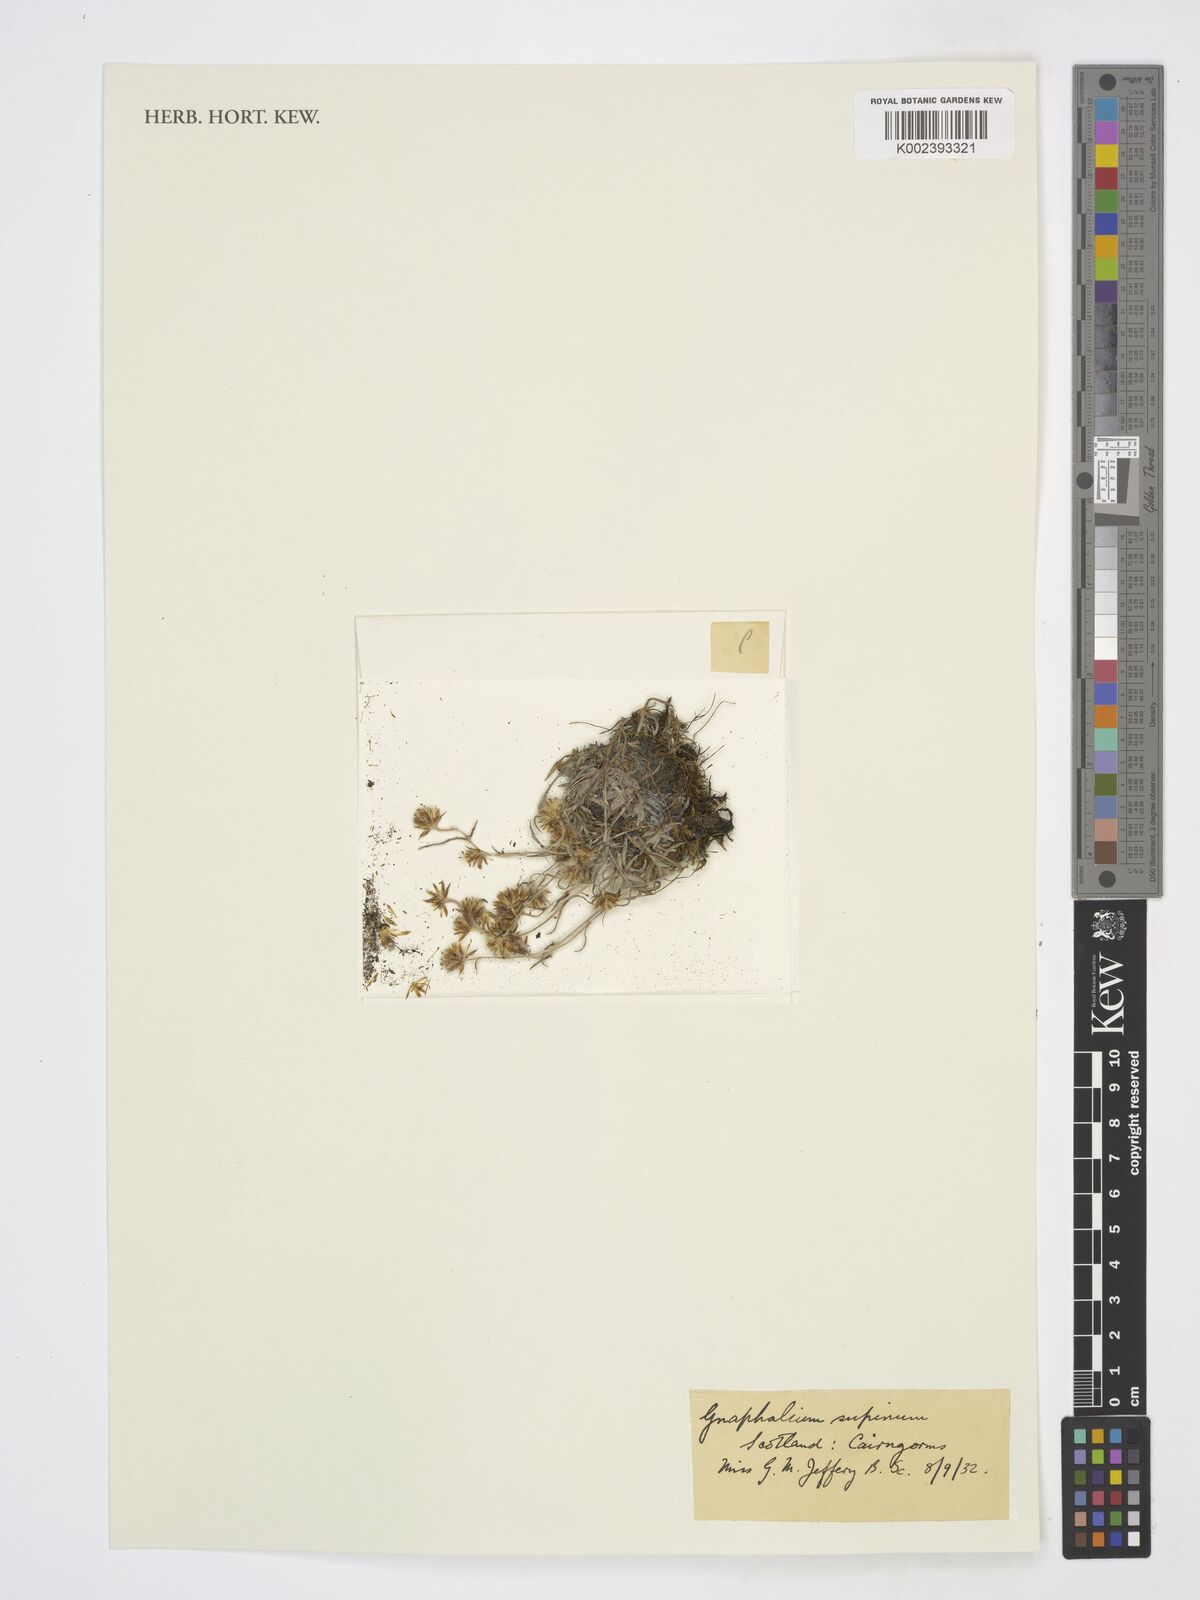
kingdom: Plantae
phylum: Tracheophyta
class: Magnoliopsida
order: Asterales
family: Asteraceae
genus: Omalotheca
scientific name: Omalotheca supina
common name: Alpine arctic-cudweed
